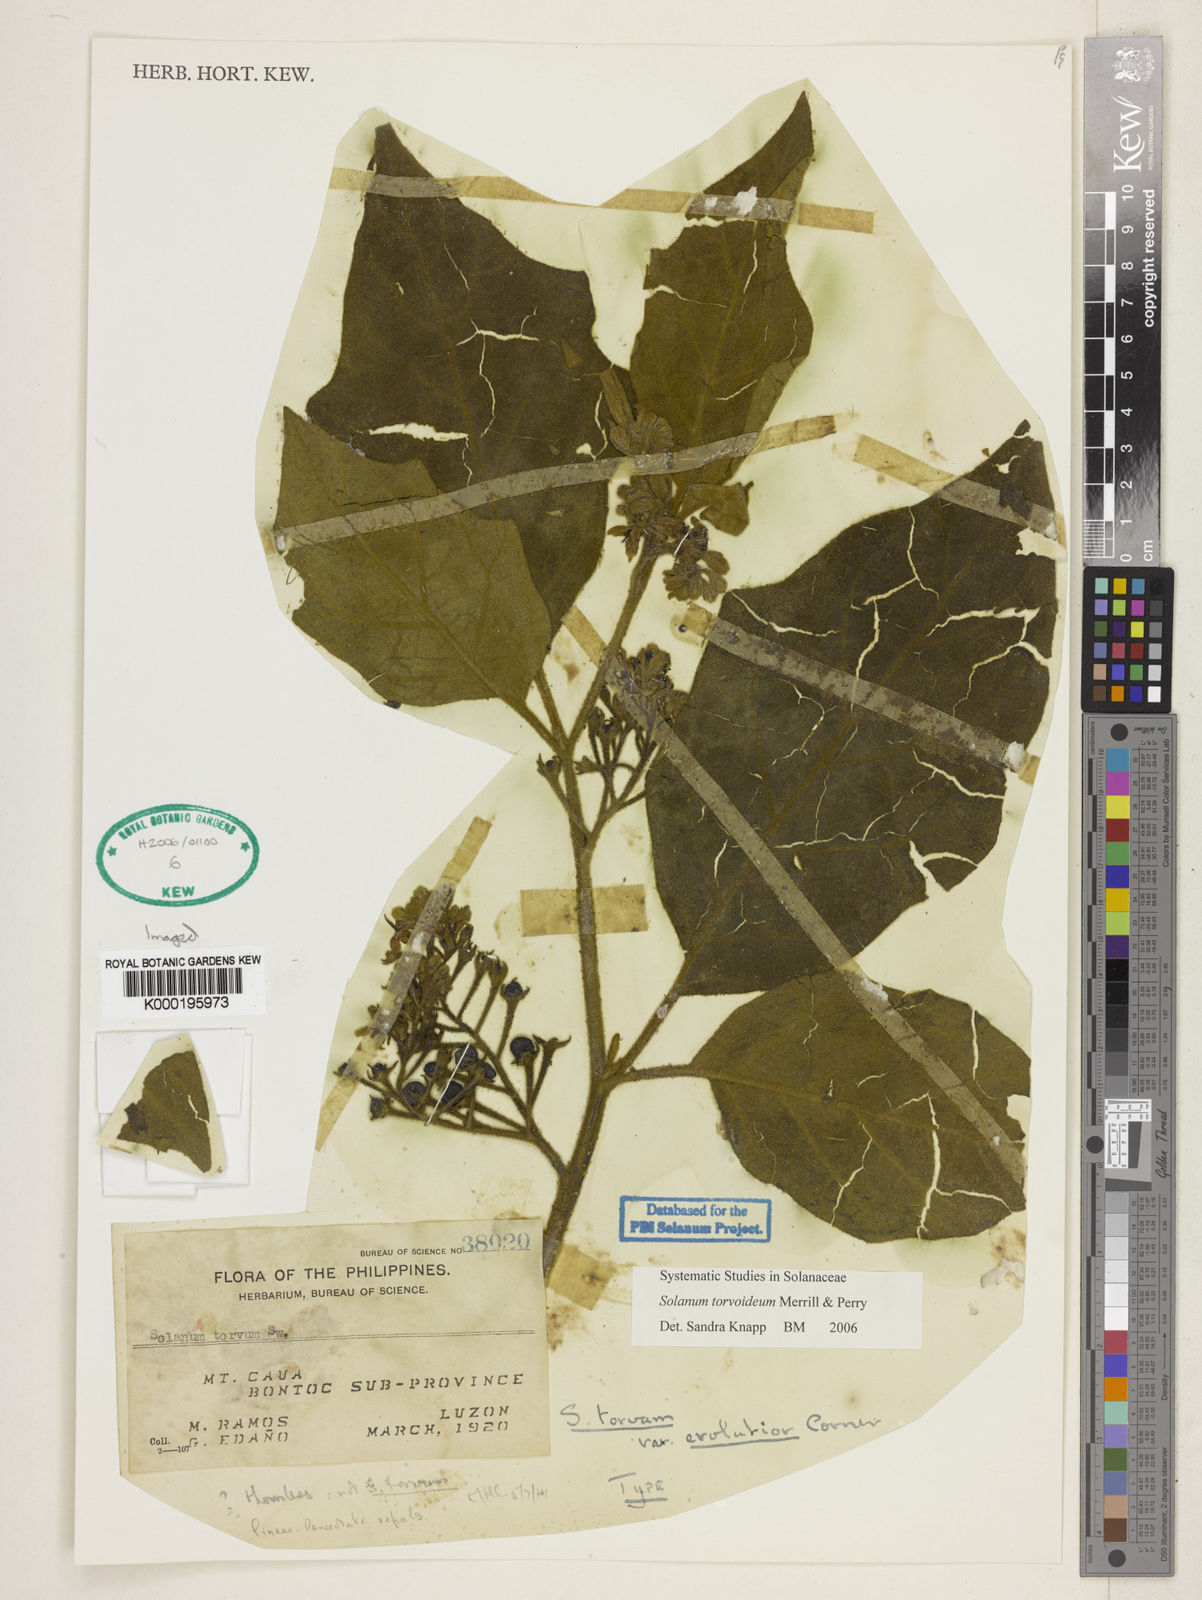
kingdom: Plantae
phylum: Tracheophyta
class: Magnoliopsida
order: Solanales
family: Solanaceae
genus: Solanum
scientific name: Solanum torvoideum
